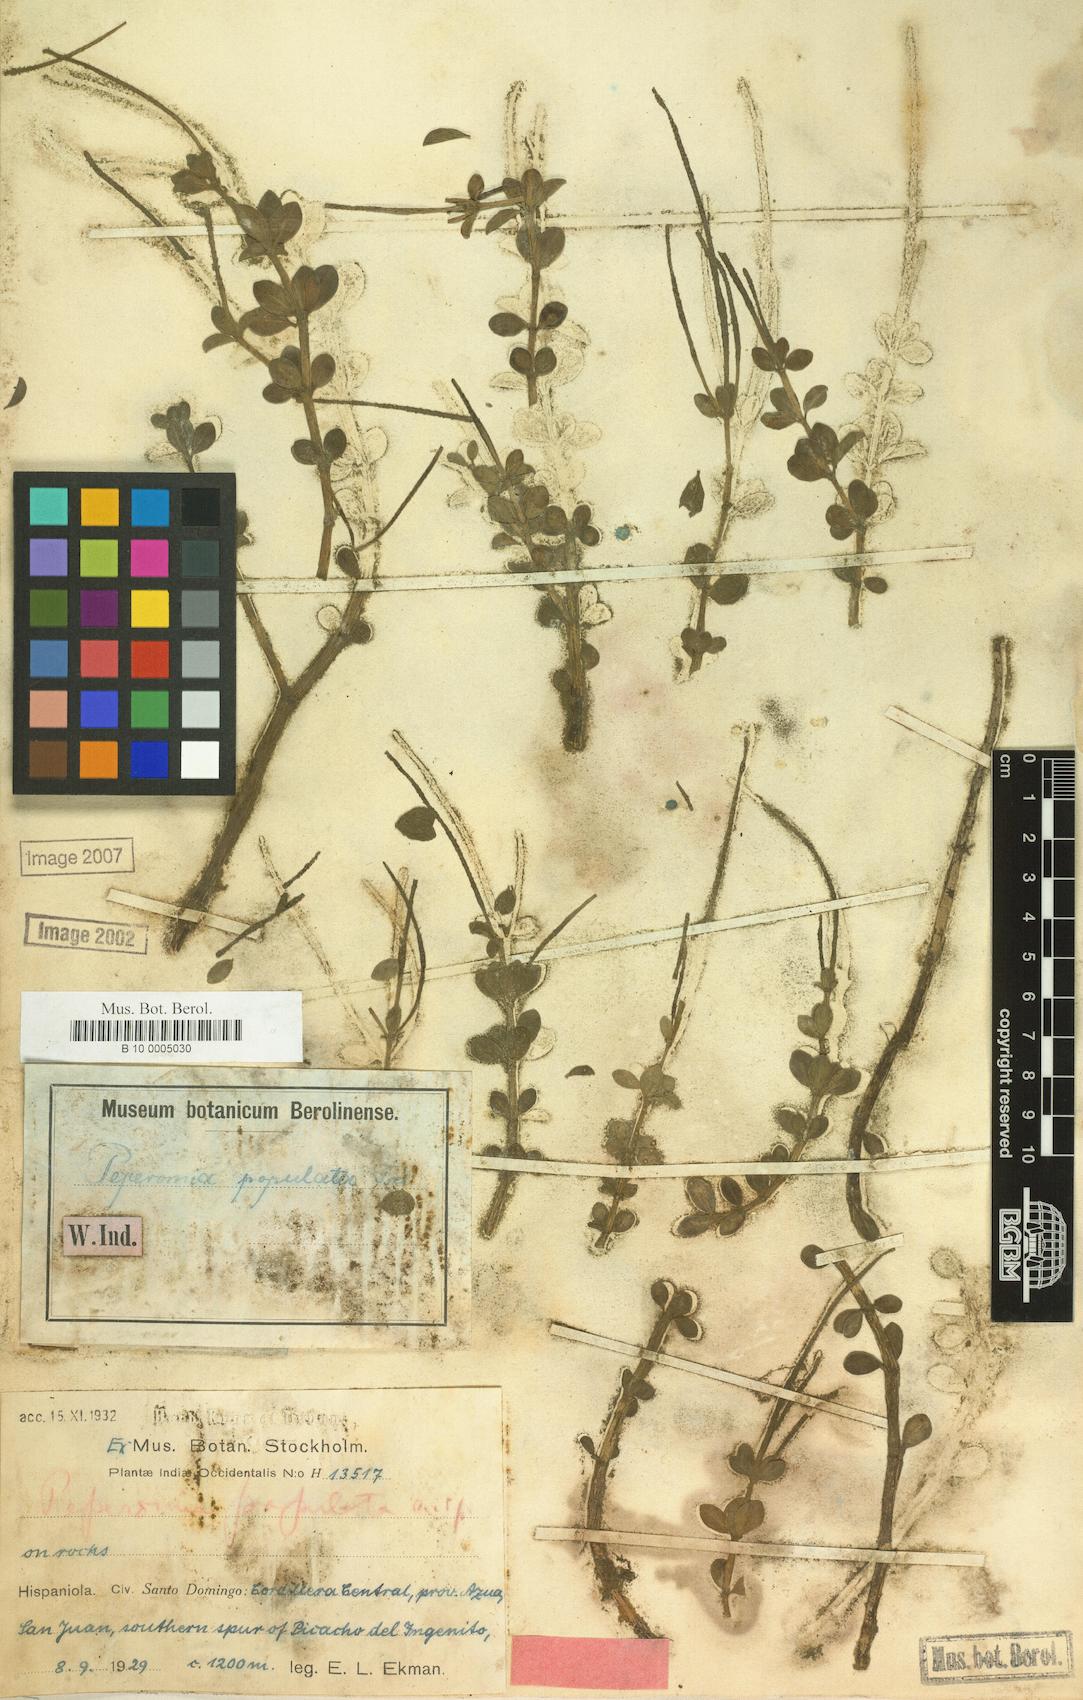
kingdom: Plantae
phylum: Tracheophyta
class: Magnoliopsida
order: Piperales
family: Piperaceae
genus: Peperomia
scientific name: Peperomia verticillata
